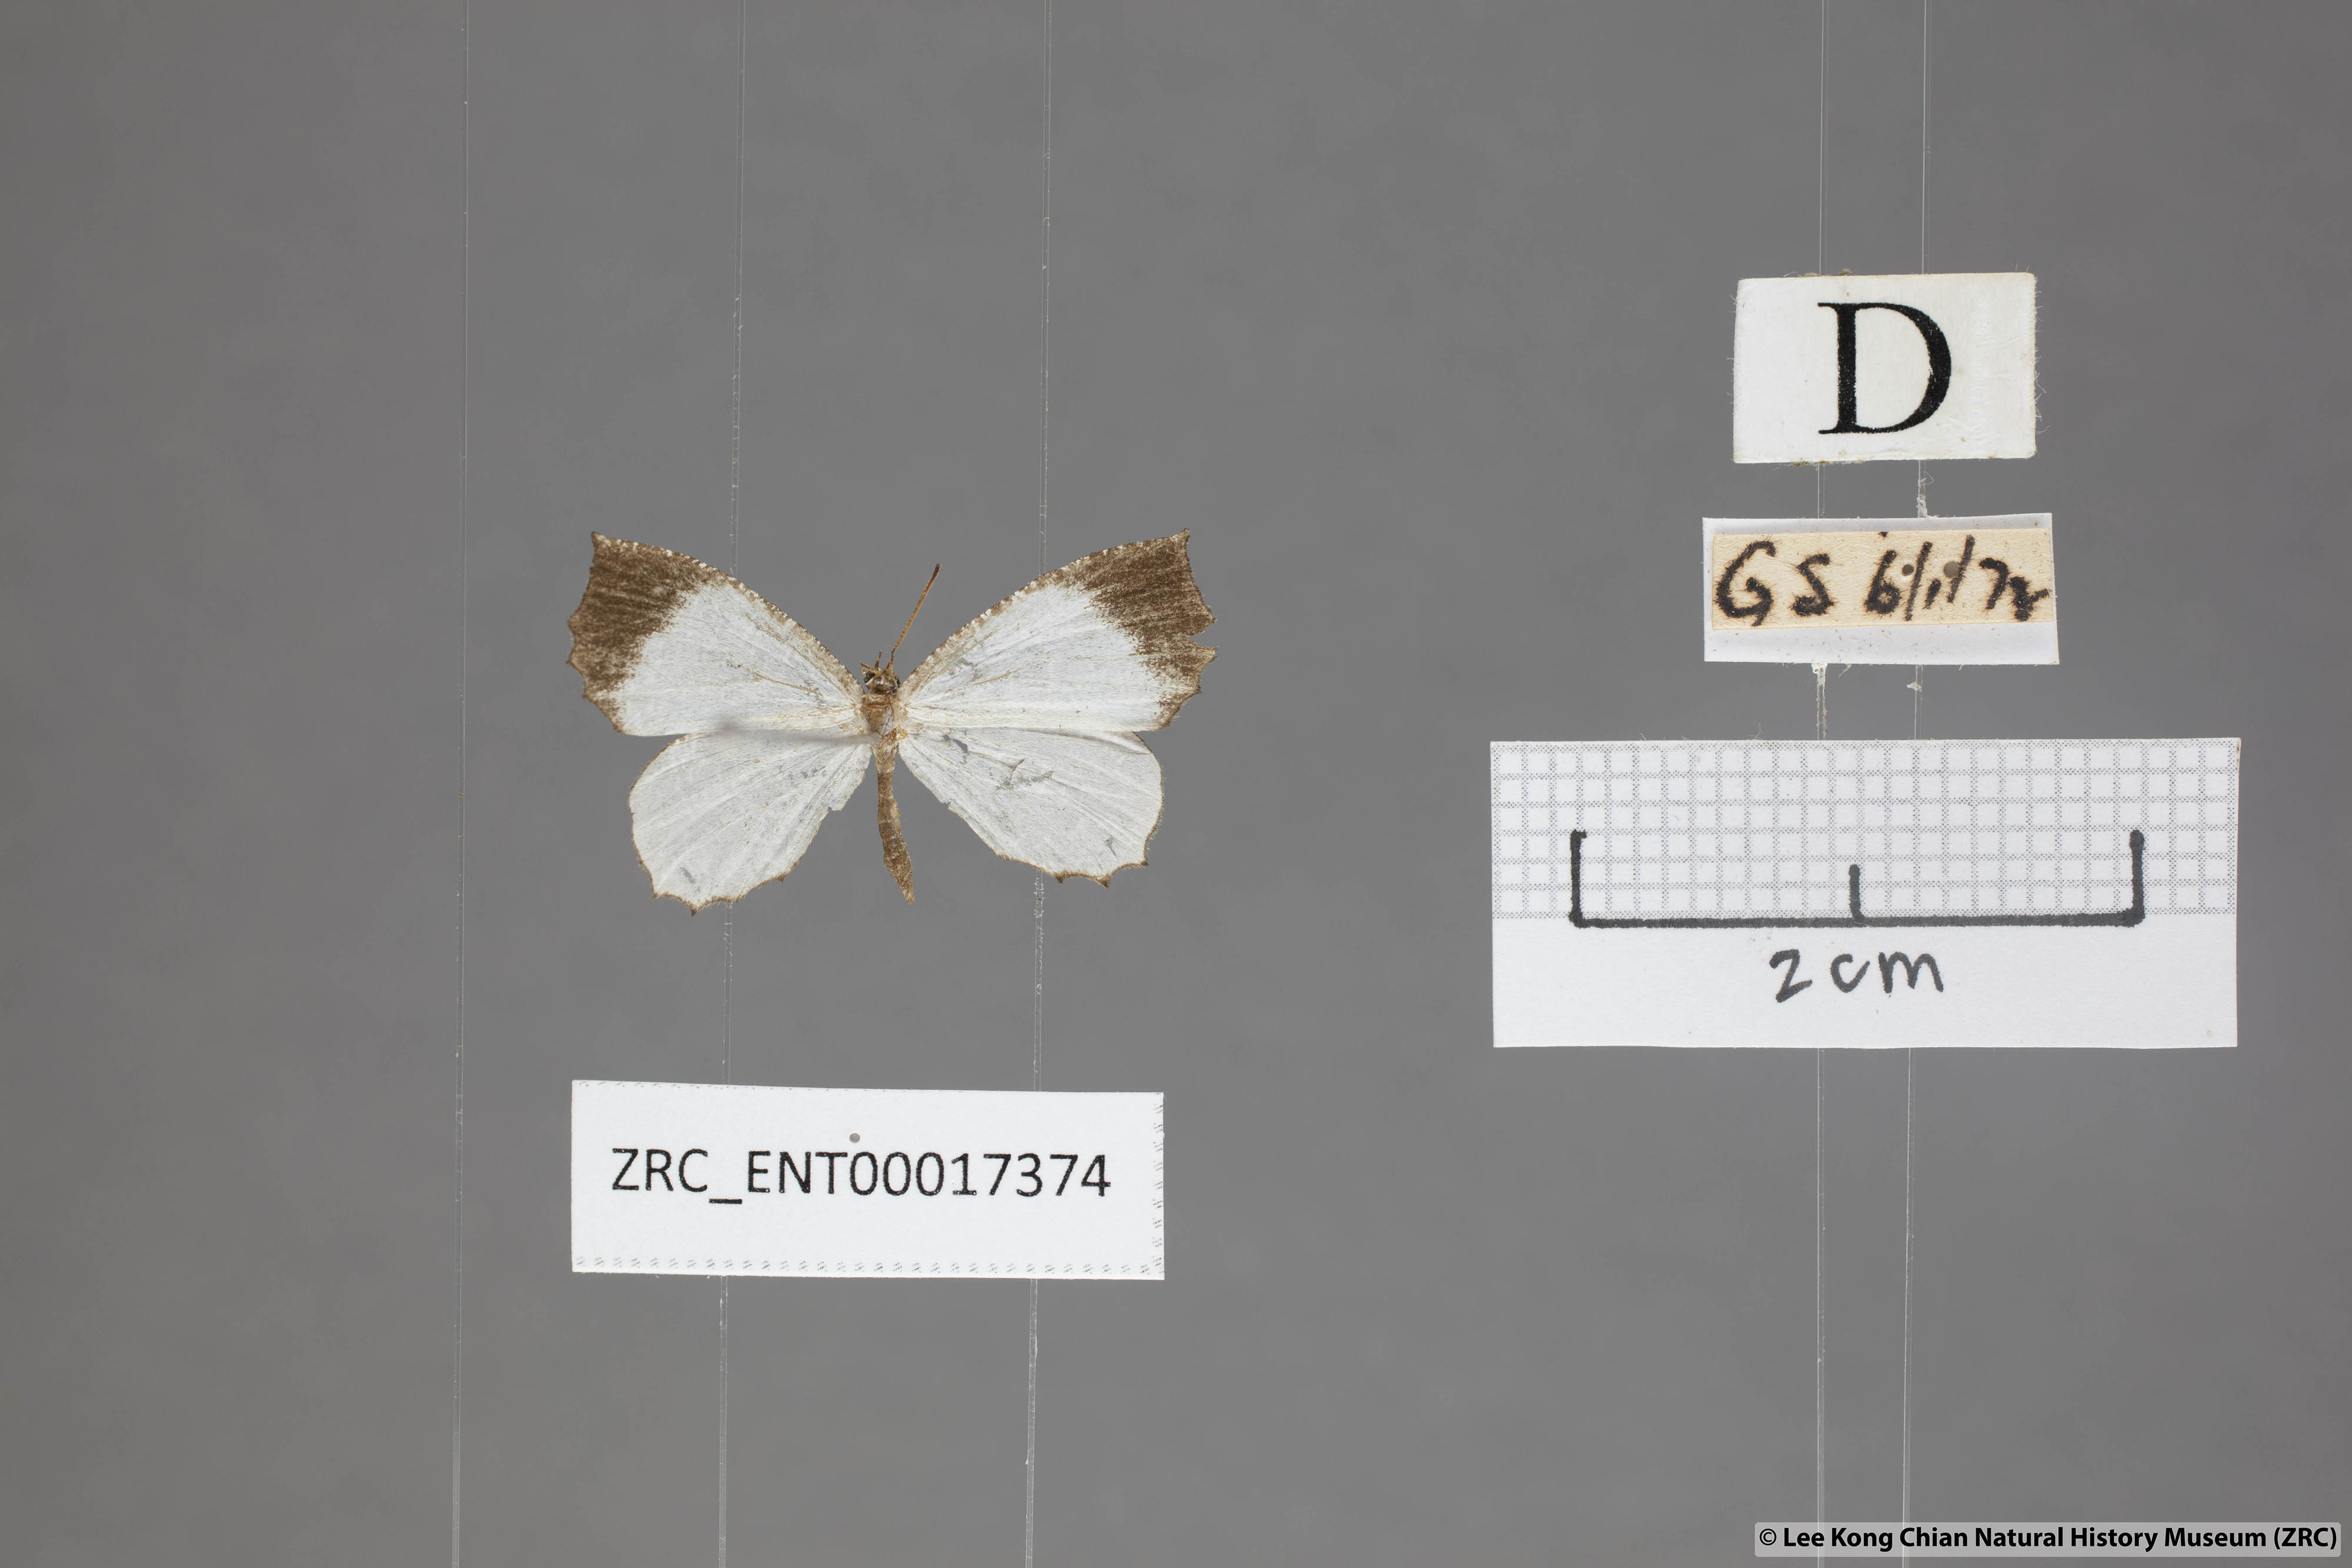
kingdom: Animalia
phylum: Arthropoda
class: Insecta
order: Lepidoptera
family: Lycaenidae
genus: Logania
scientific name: Logania malayica
